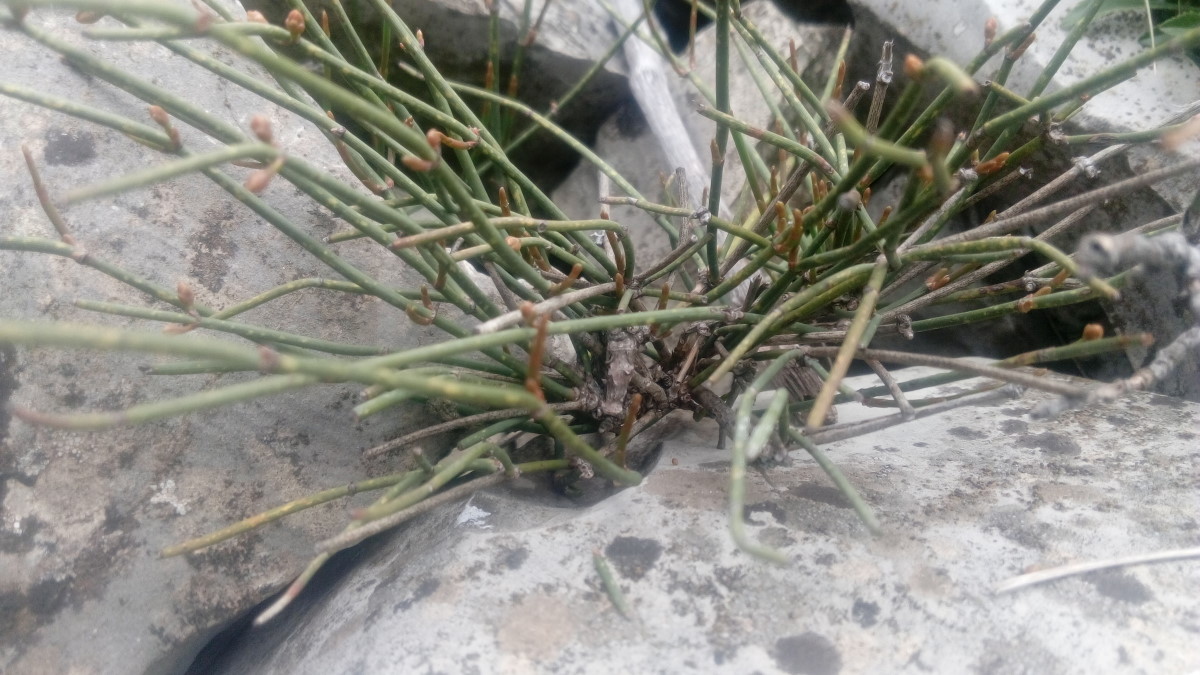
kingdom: Plantae
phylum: Tracheophyta
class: Gnetopsida
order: Ephedrales
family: Ephedraceae
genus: Ephedra
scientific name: Ephedra
